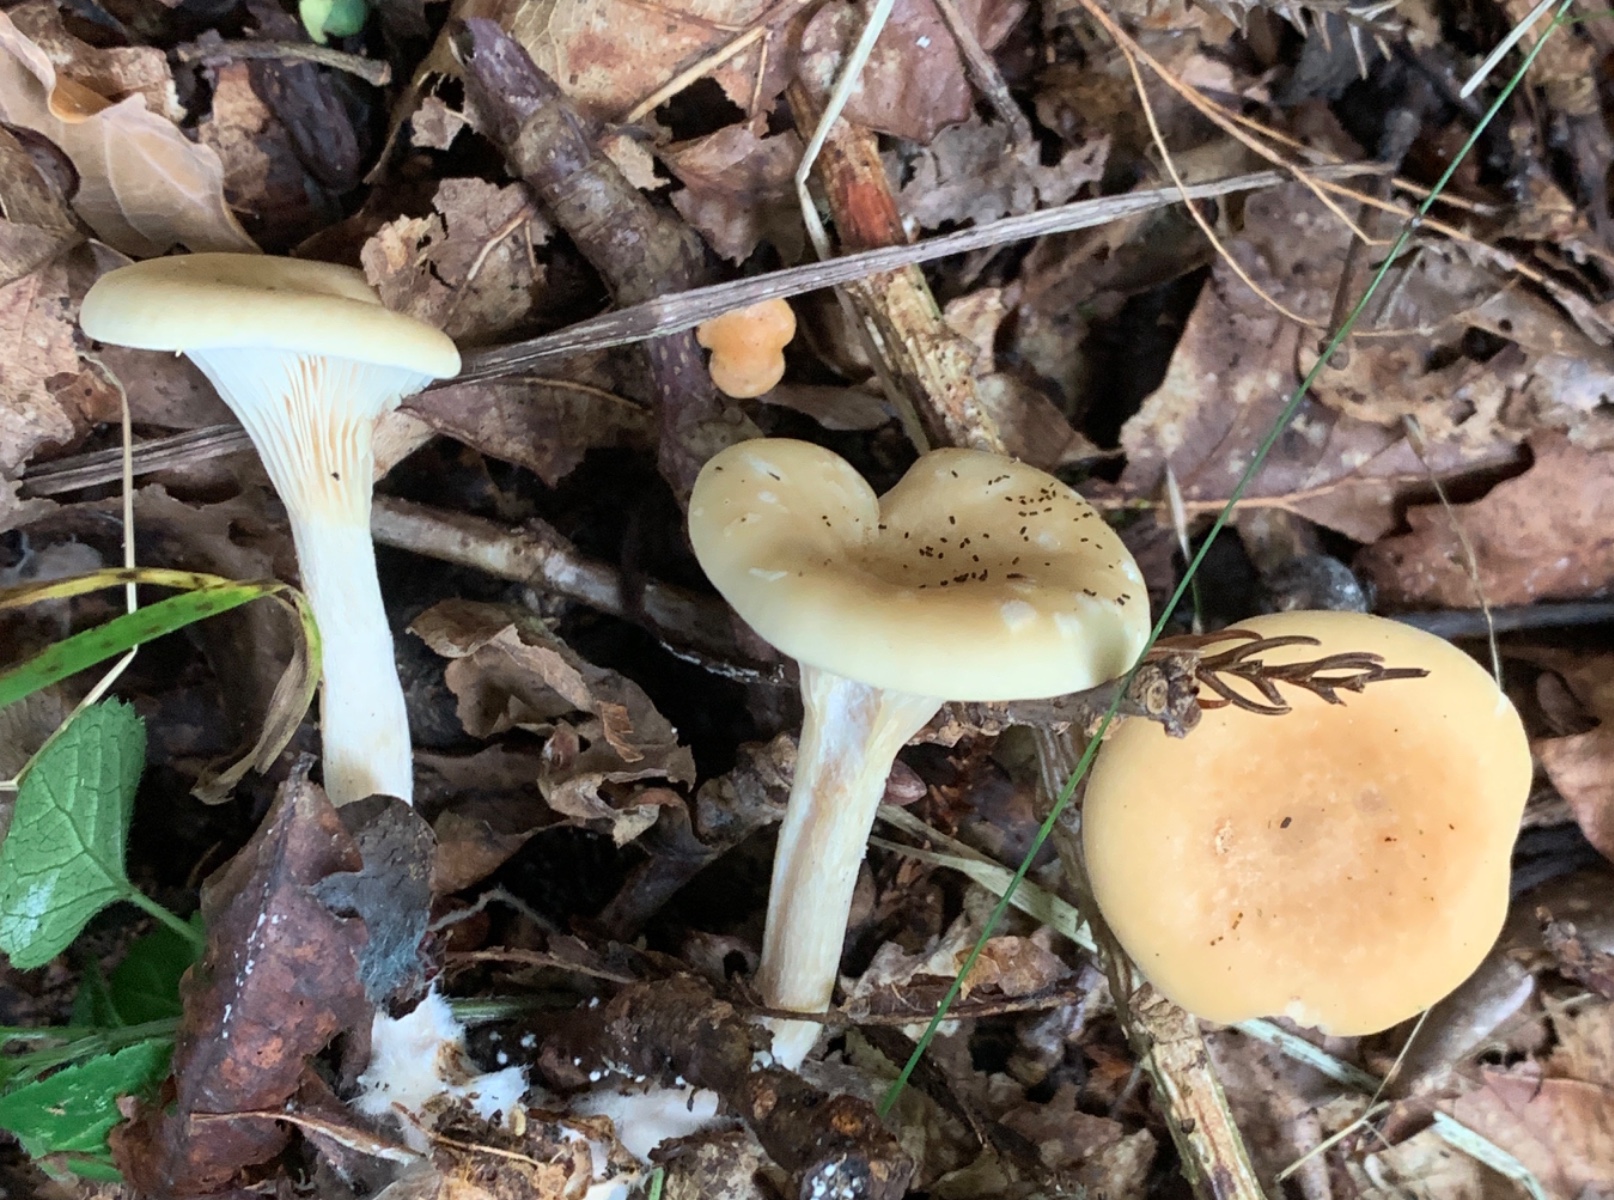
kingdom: Fungi
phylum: Basidiomycota
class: Agaricomycetes
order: Agaricales
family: Tricholomataceae
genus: Paralepista
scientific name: Paralepista flaccida
